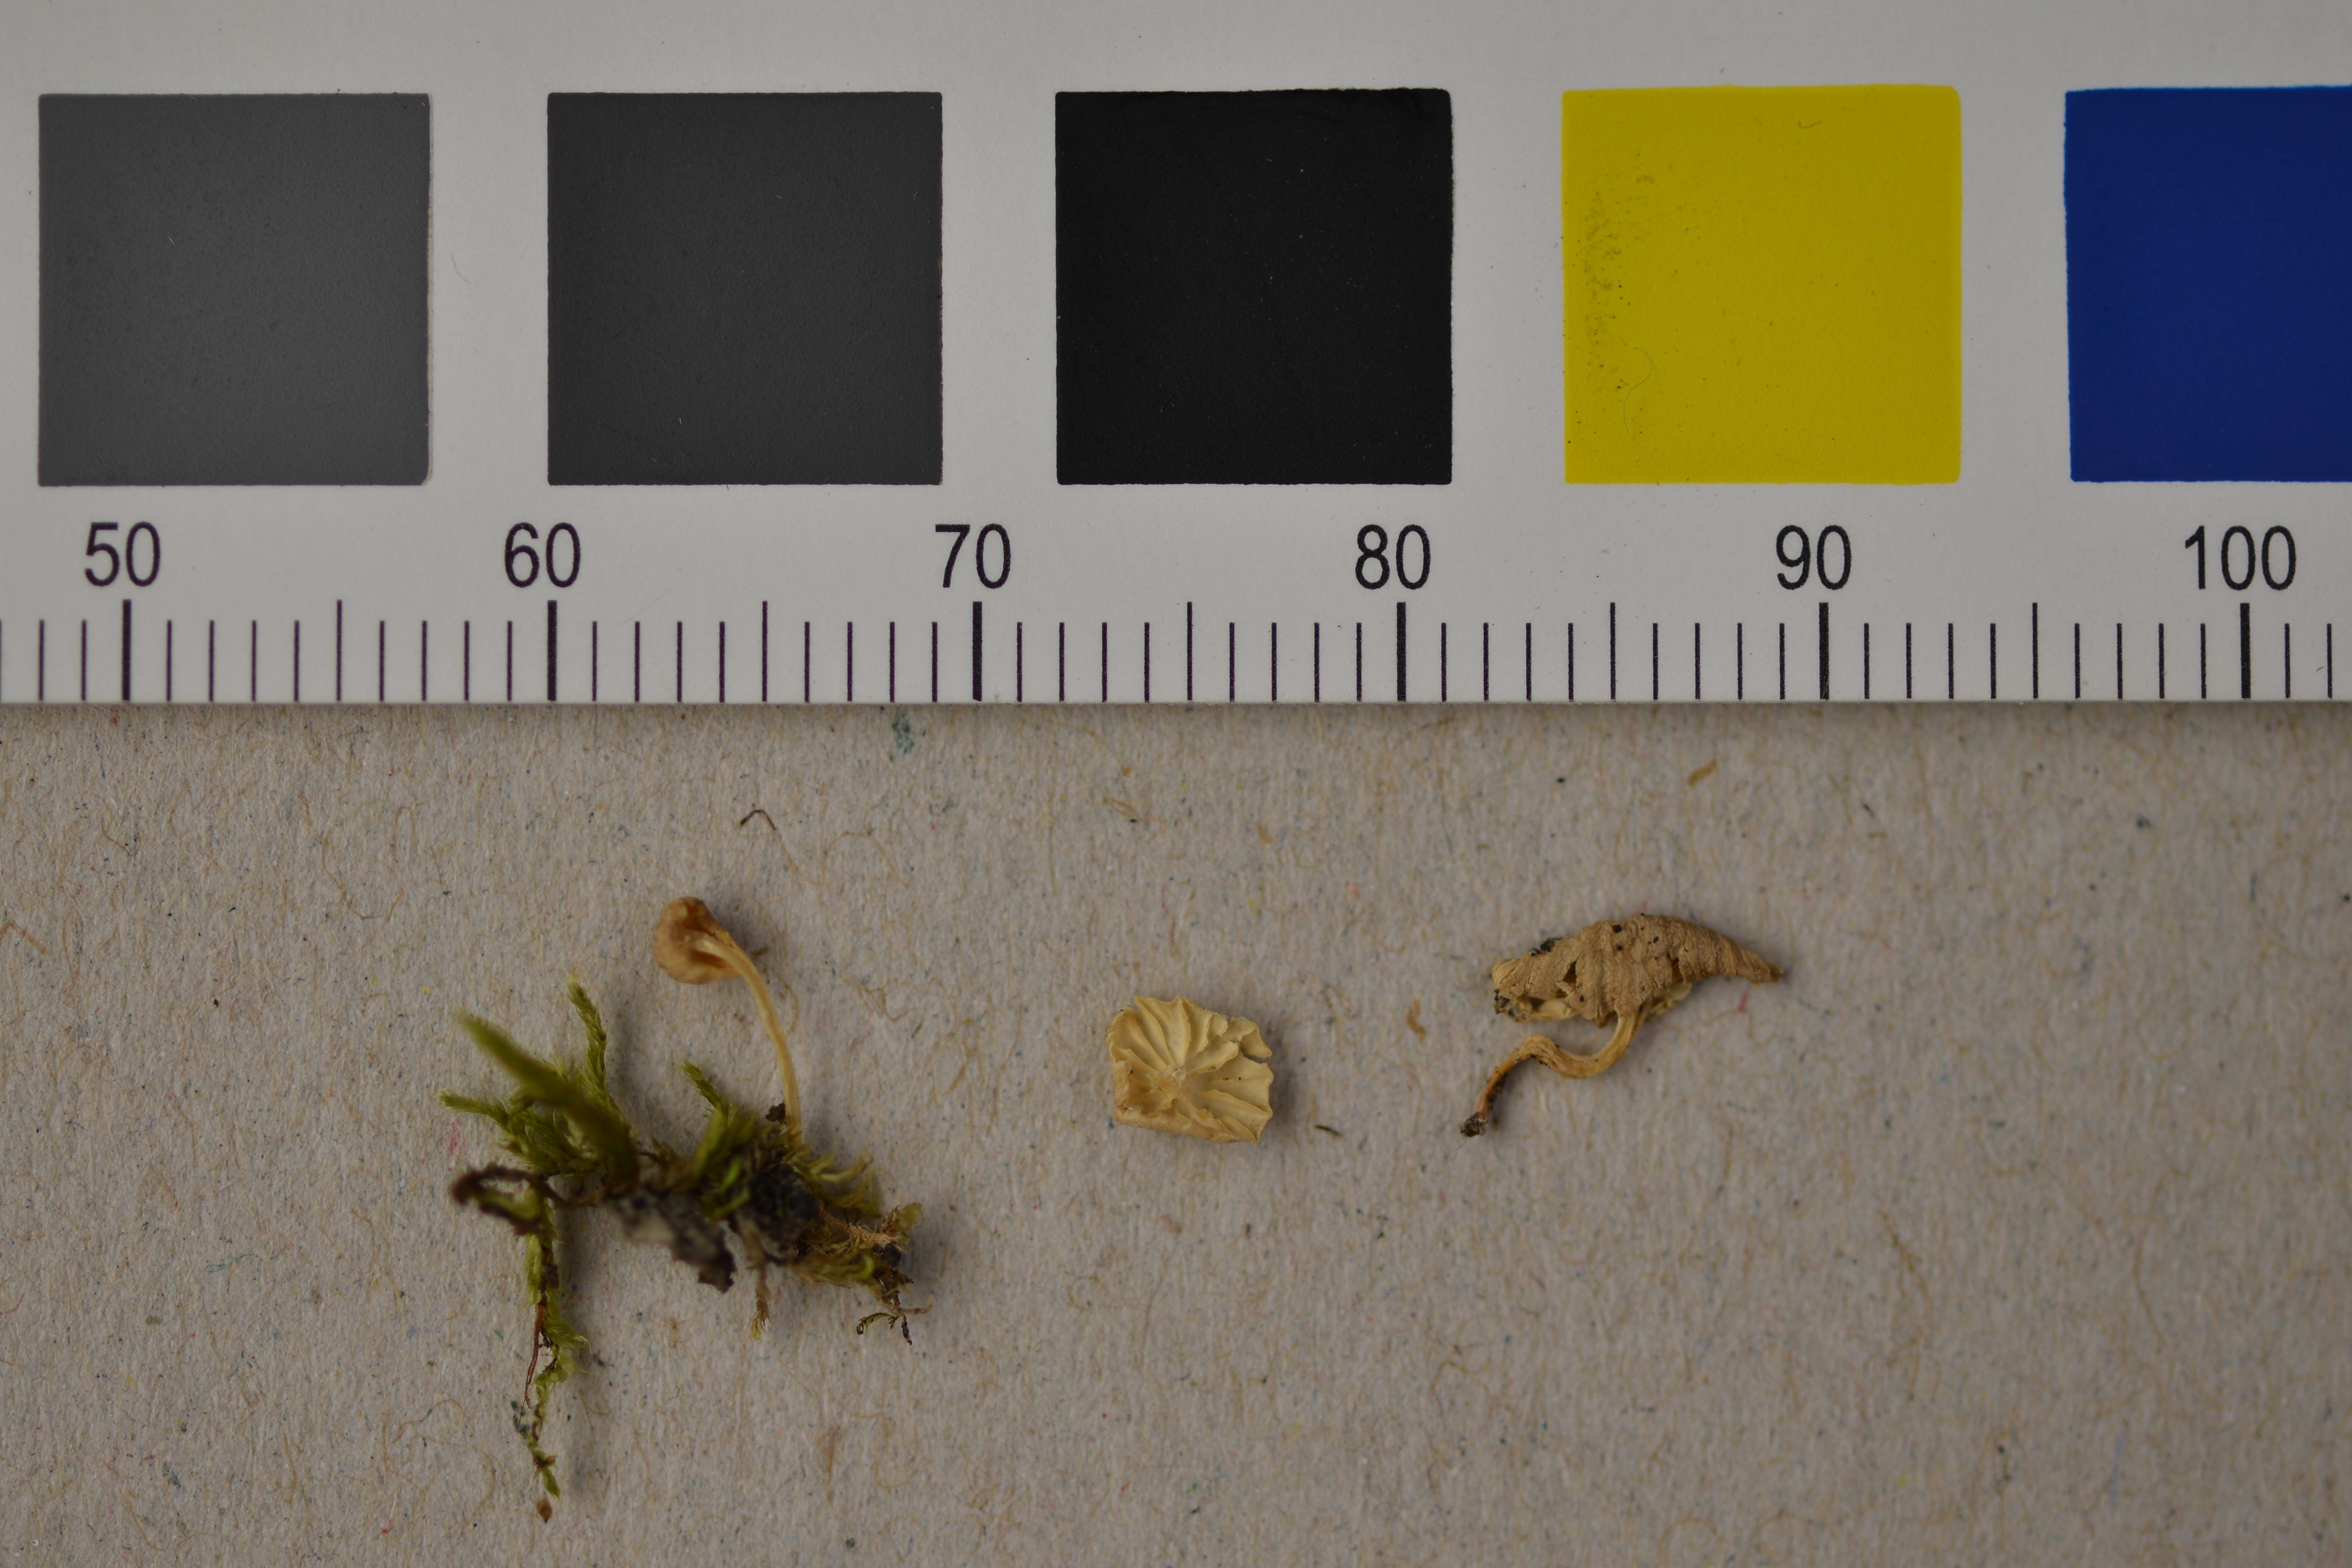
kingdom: Fungi
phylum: Basidiomycota
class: Agaricomycetes
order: Agaricales
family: Porotheleaceae
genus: Phloeomana
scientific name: Phloeomana alba
